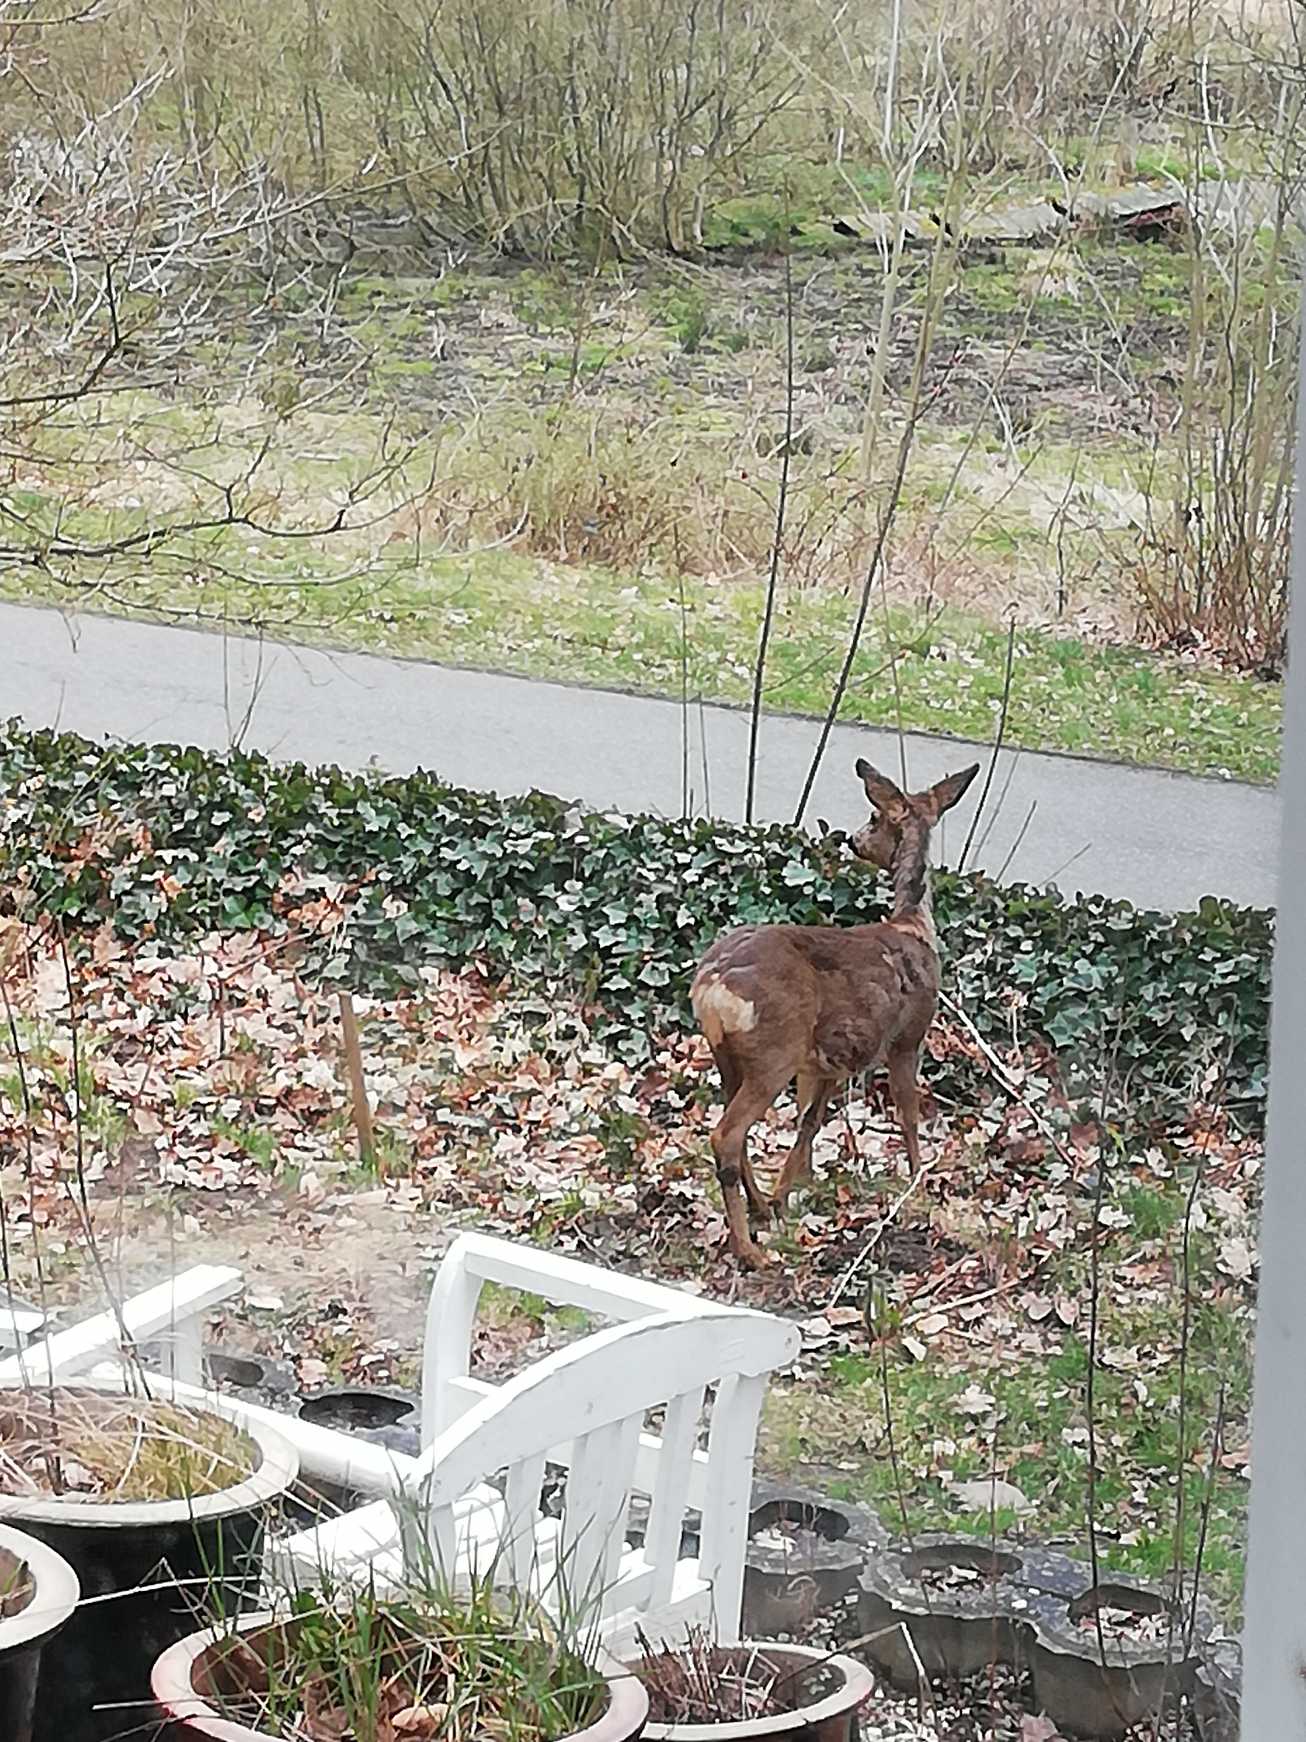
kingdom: Animalia
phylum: Chordata
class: Mammalia
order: Artiodactyla
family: Cervidae
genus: Capreolus
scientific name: Capreolus capreolus
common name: Rådyr
